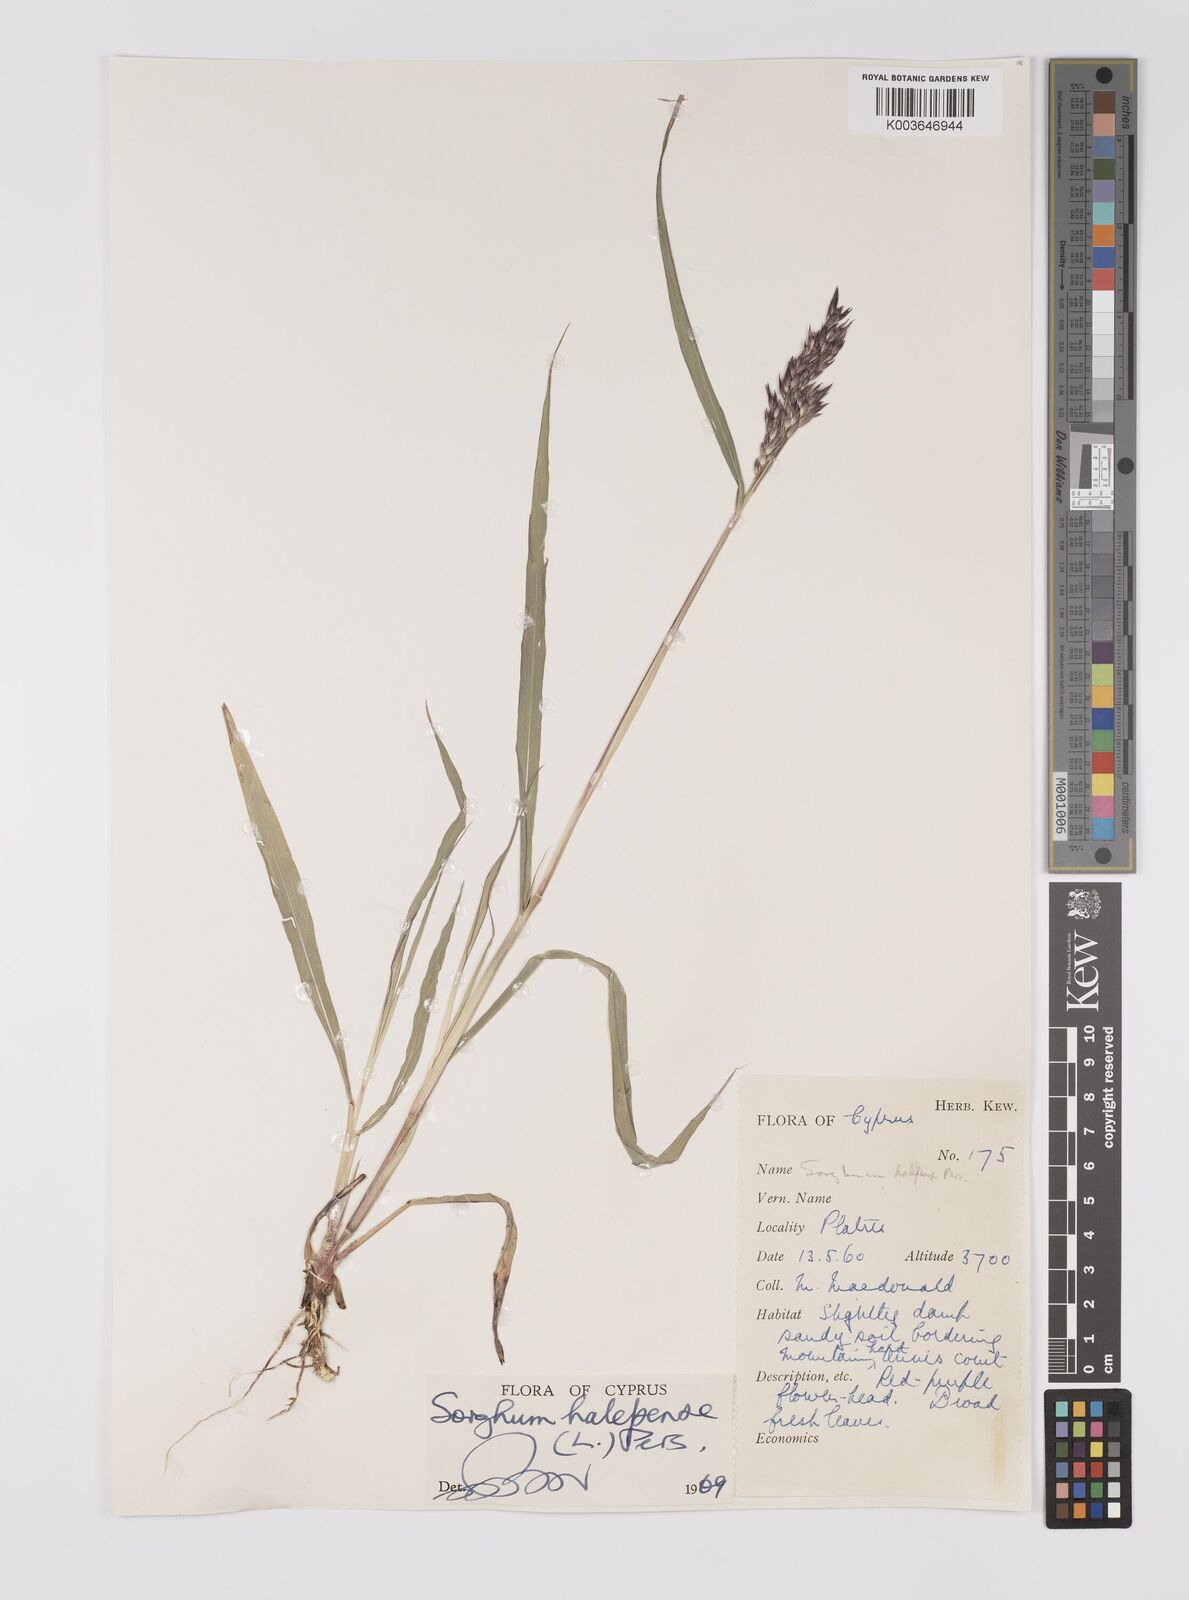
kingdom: Plantae
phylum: Tracheophyta
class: Liliopsida
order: Poales
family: Poaceae
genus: Sorghum
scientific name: Sorghum halepense
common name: Johnson-grass
